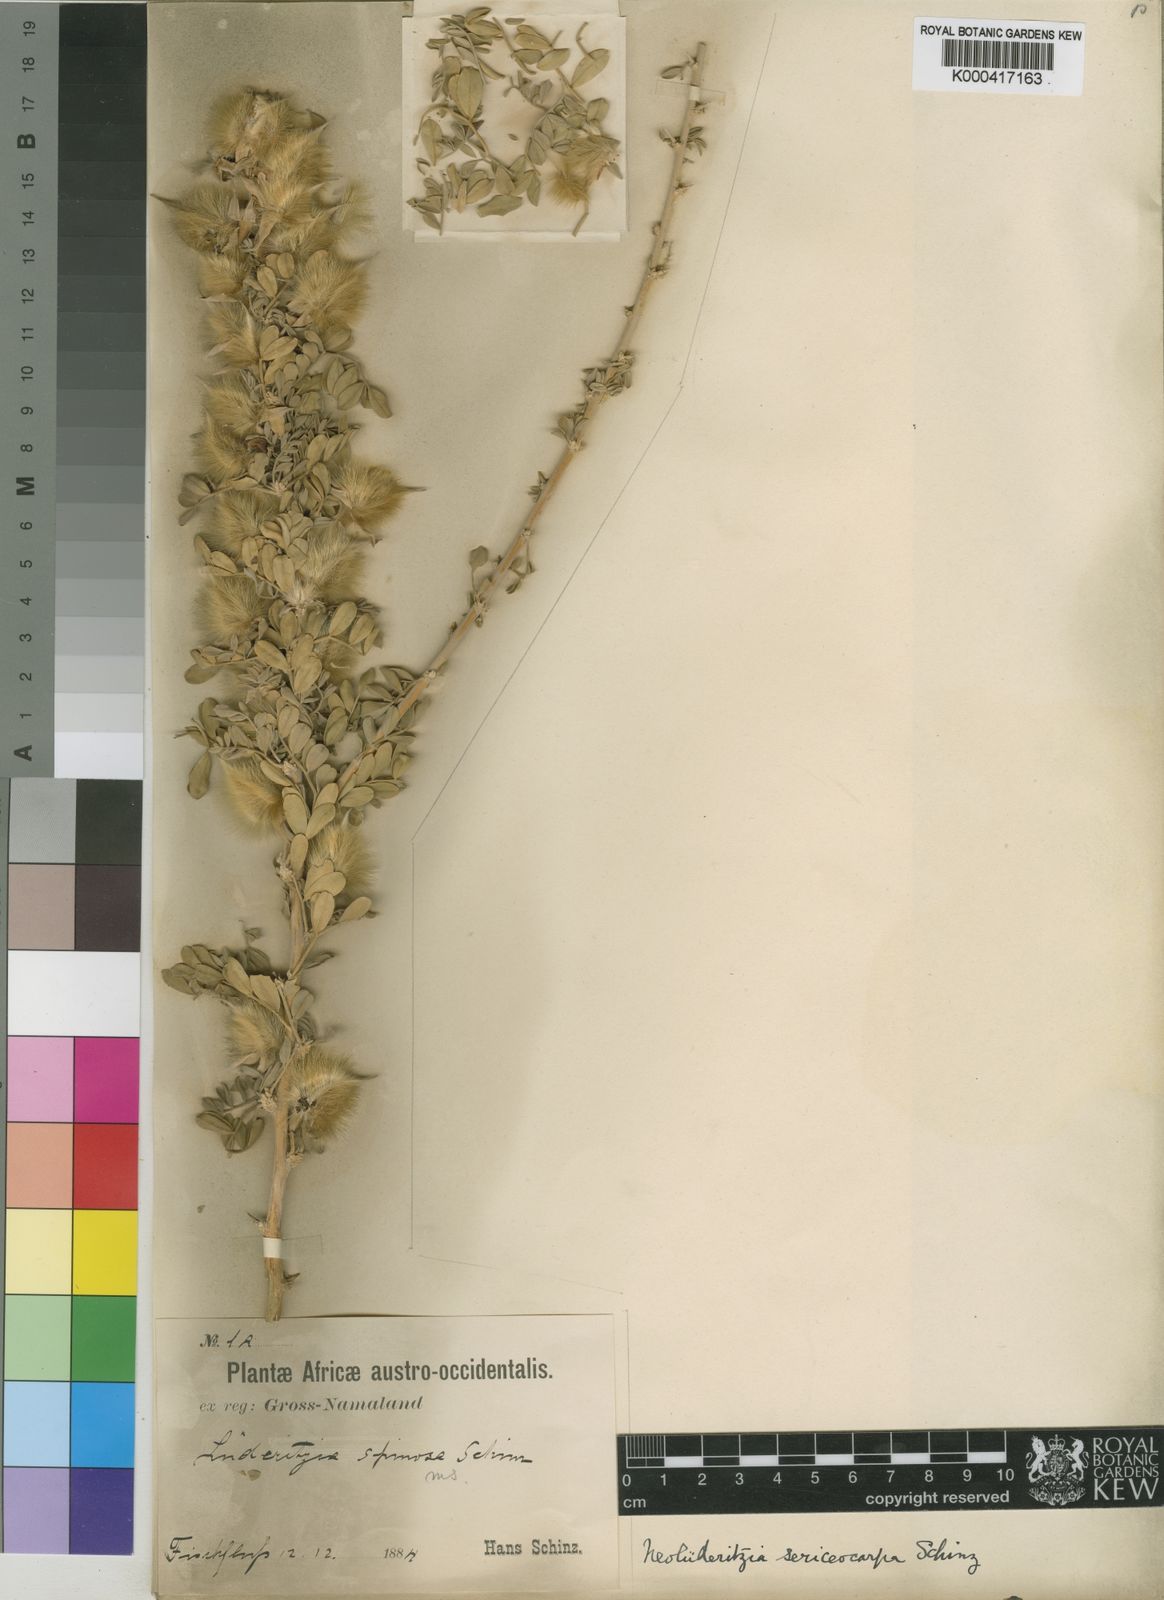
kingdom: Plantae
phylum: Tracheophyta
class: Magnoliopsida
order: Zygophyllales
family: Zygophyllaceae
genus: Neoluederitzia
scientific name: Neoluederitzia
